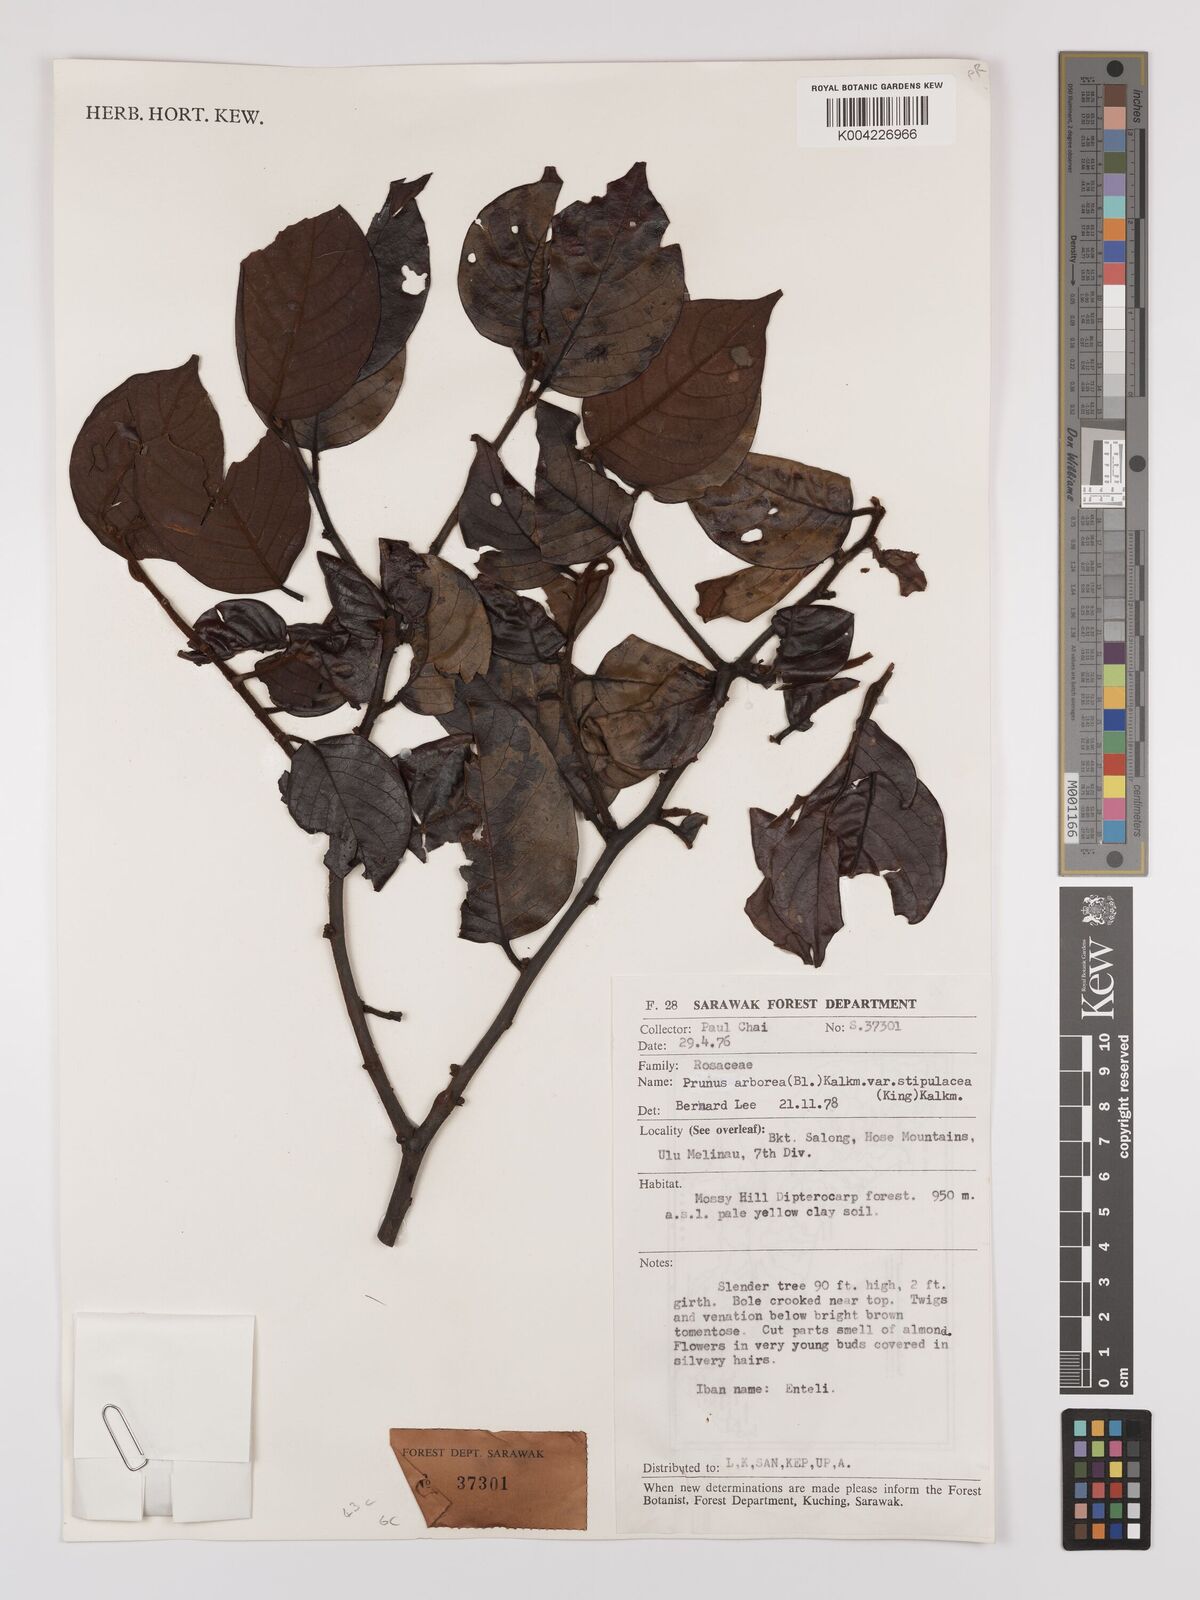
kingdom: Plantae
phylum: Tracheophyta
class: Magnoliopsida
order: Rosales
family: Rosaceae
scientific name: Rosaceae
